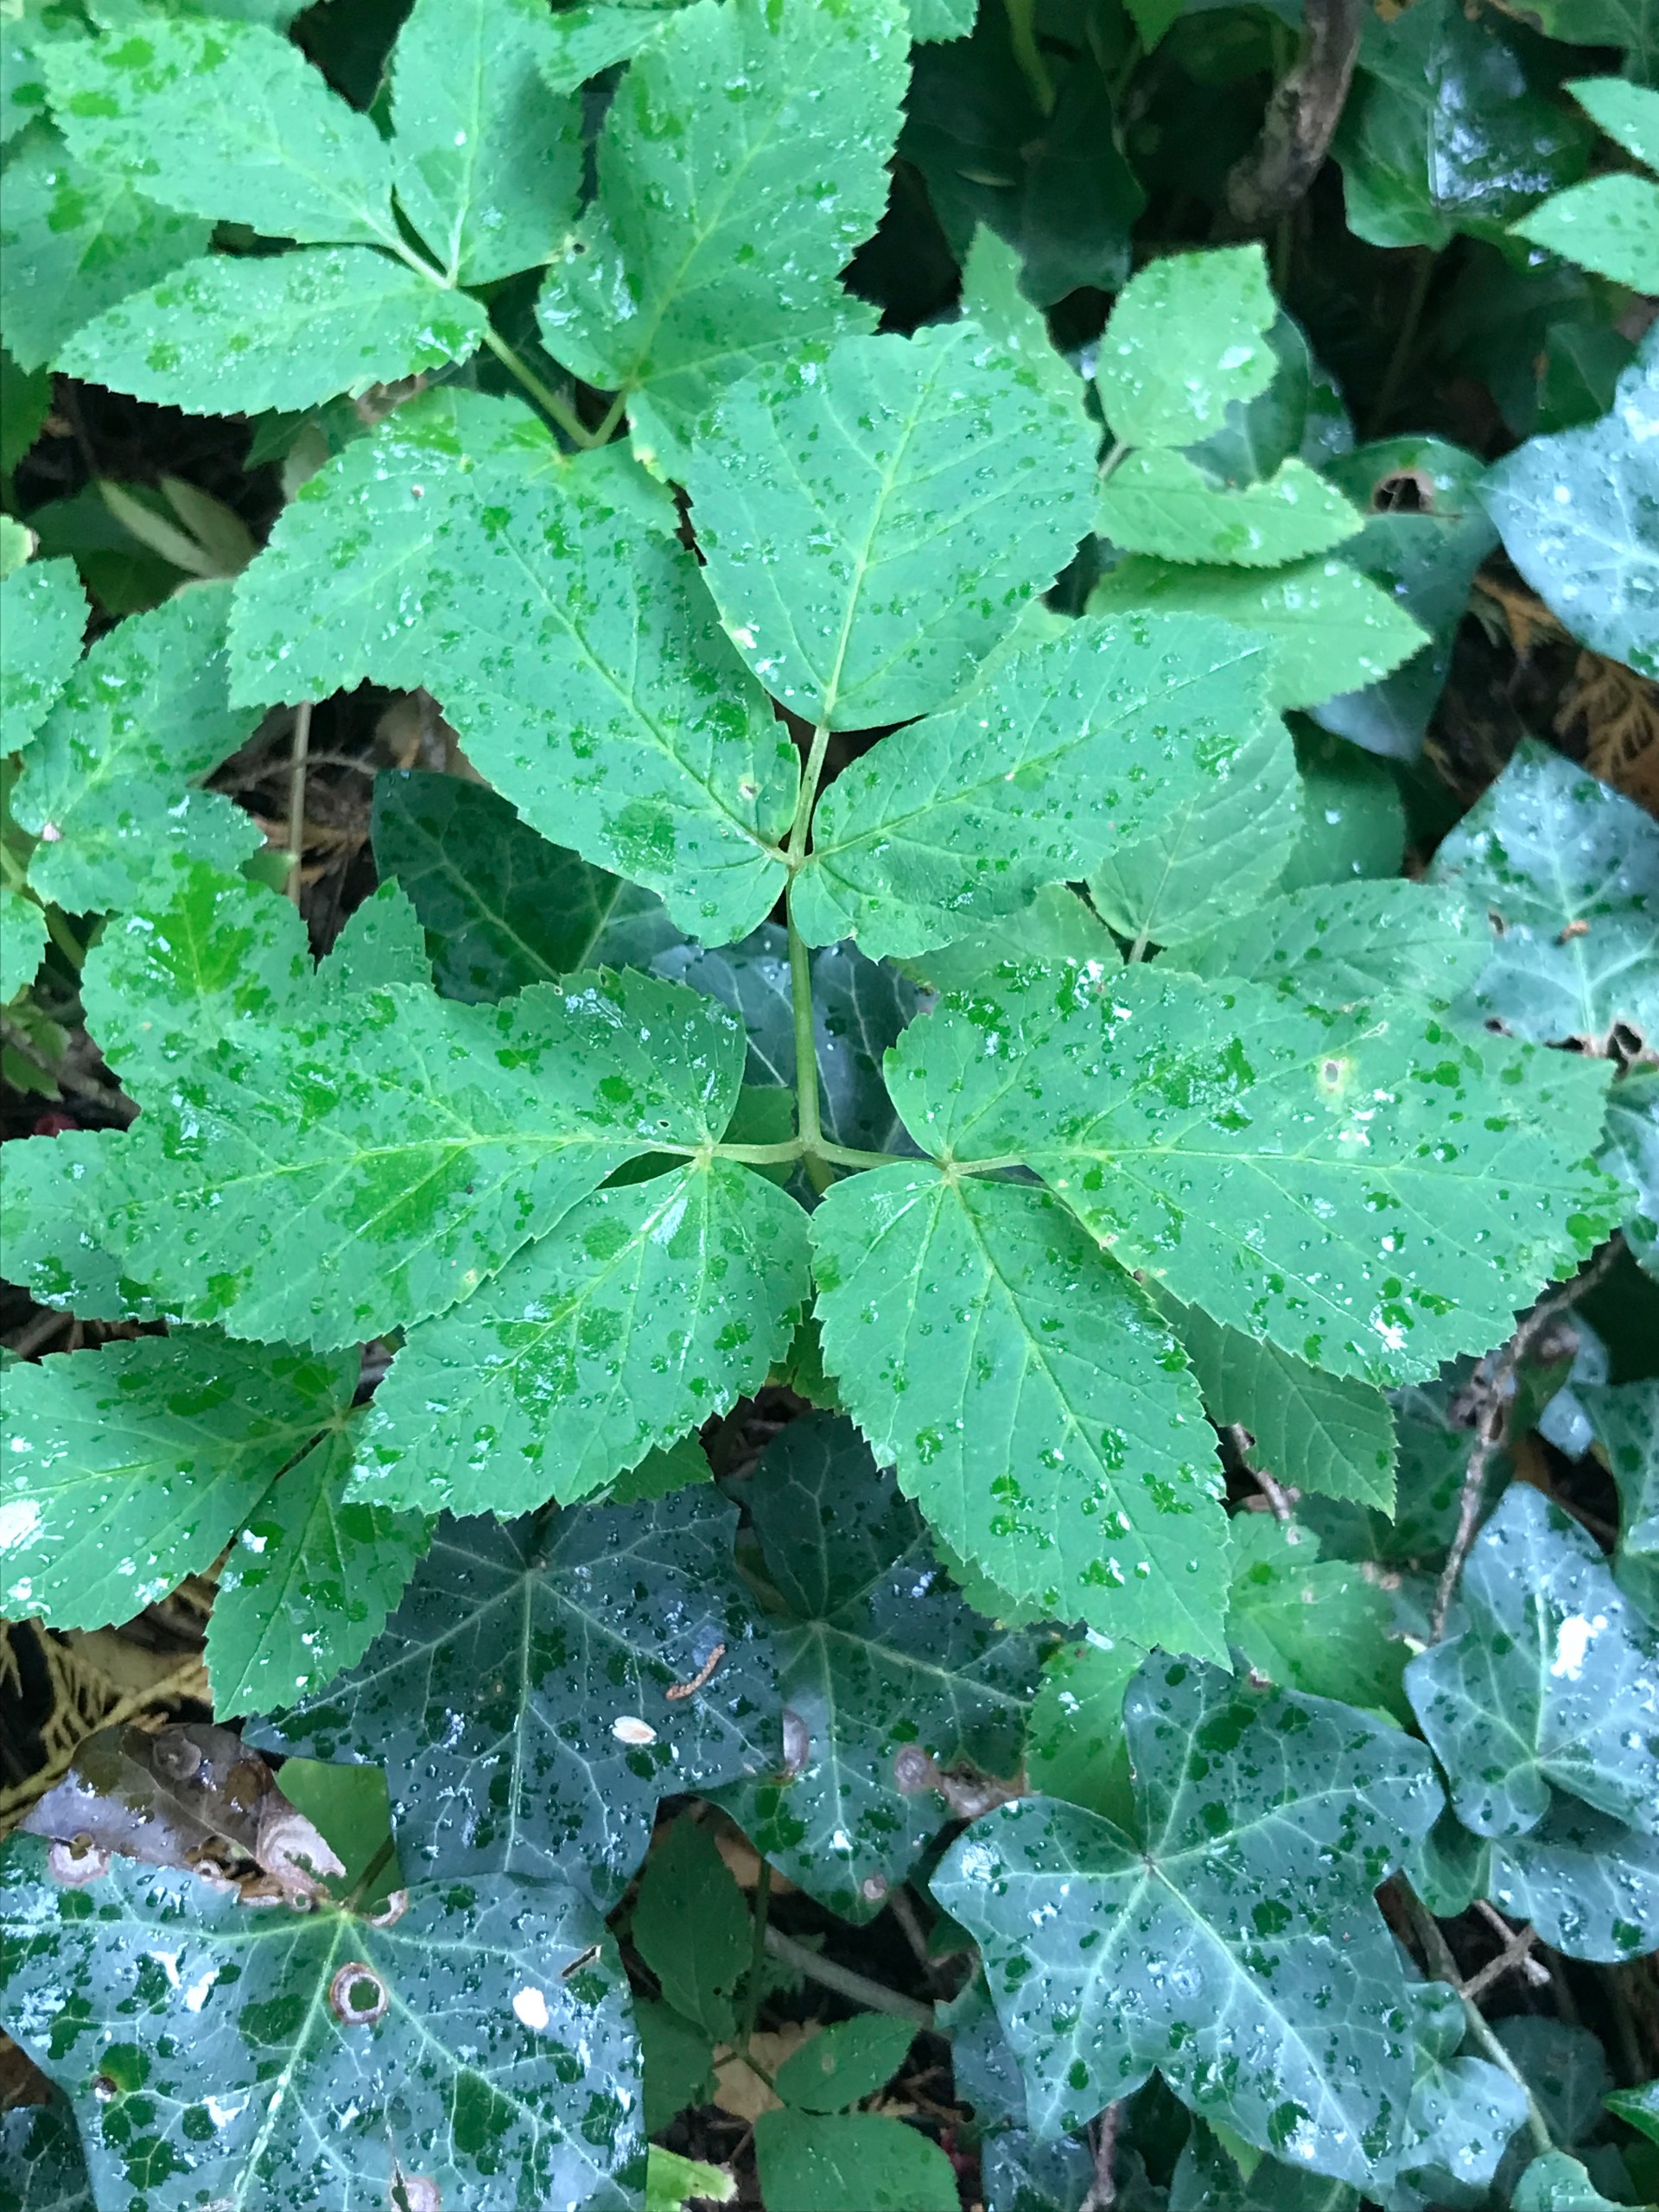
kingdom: Plantae
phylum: Tracheophyta
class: Magnoliopsida
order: Apiales
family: Apiaceae
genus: Aegopodium
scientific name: Aegopodium podagraria
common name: Skvalderkål
